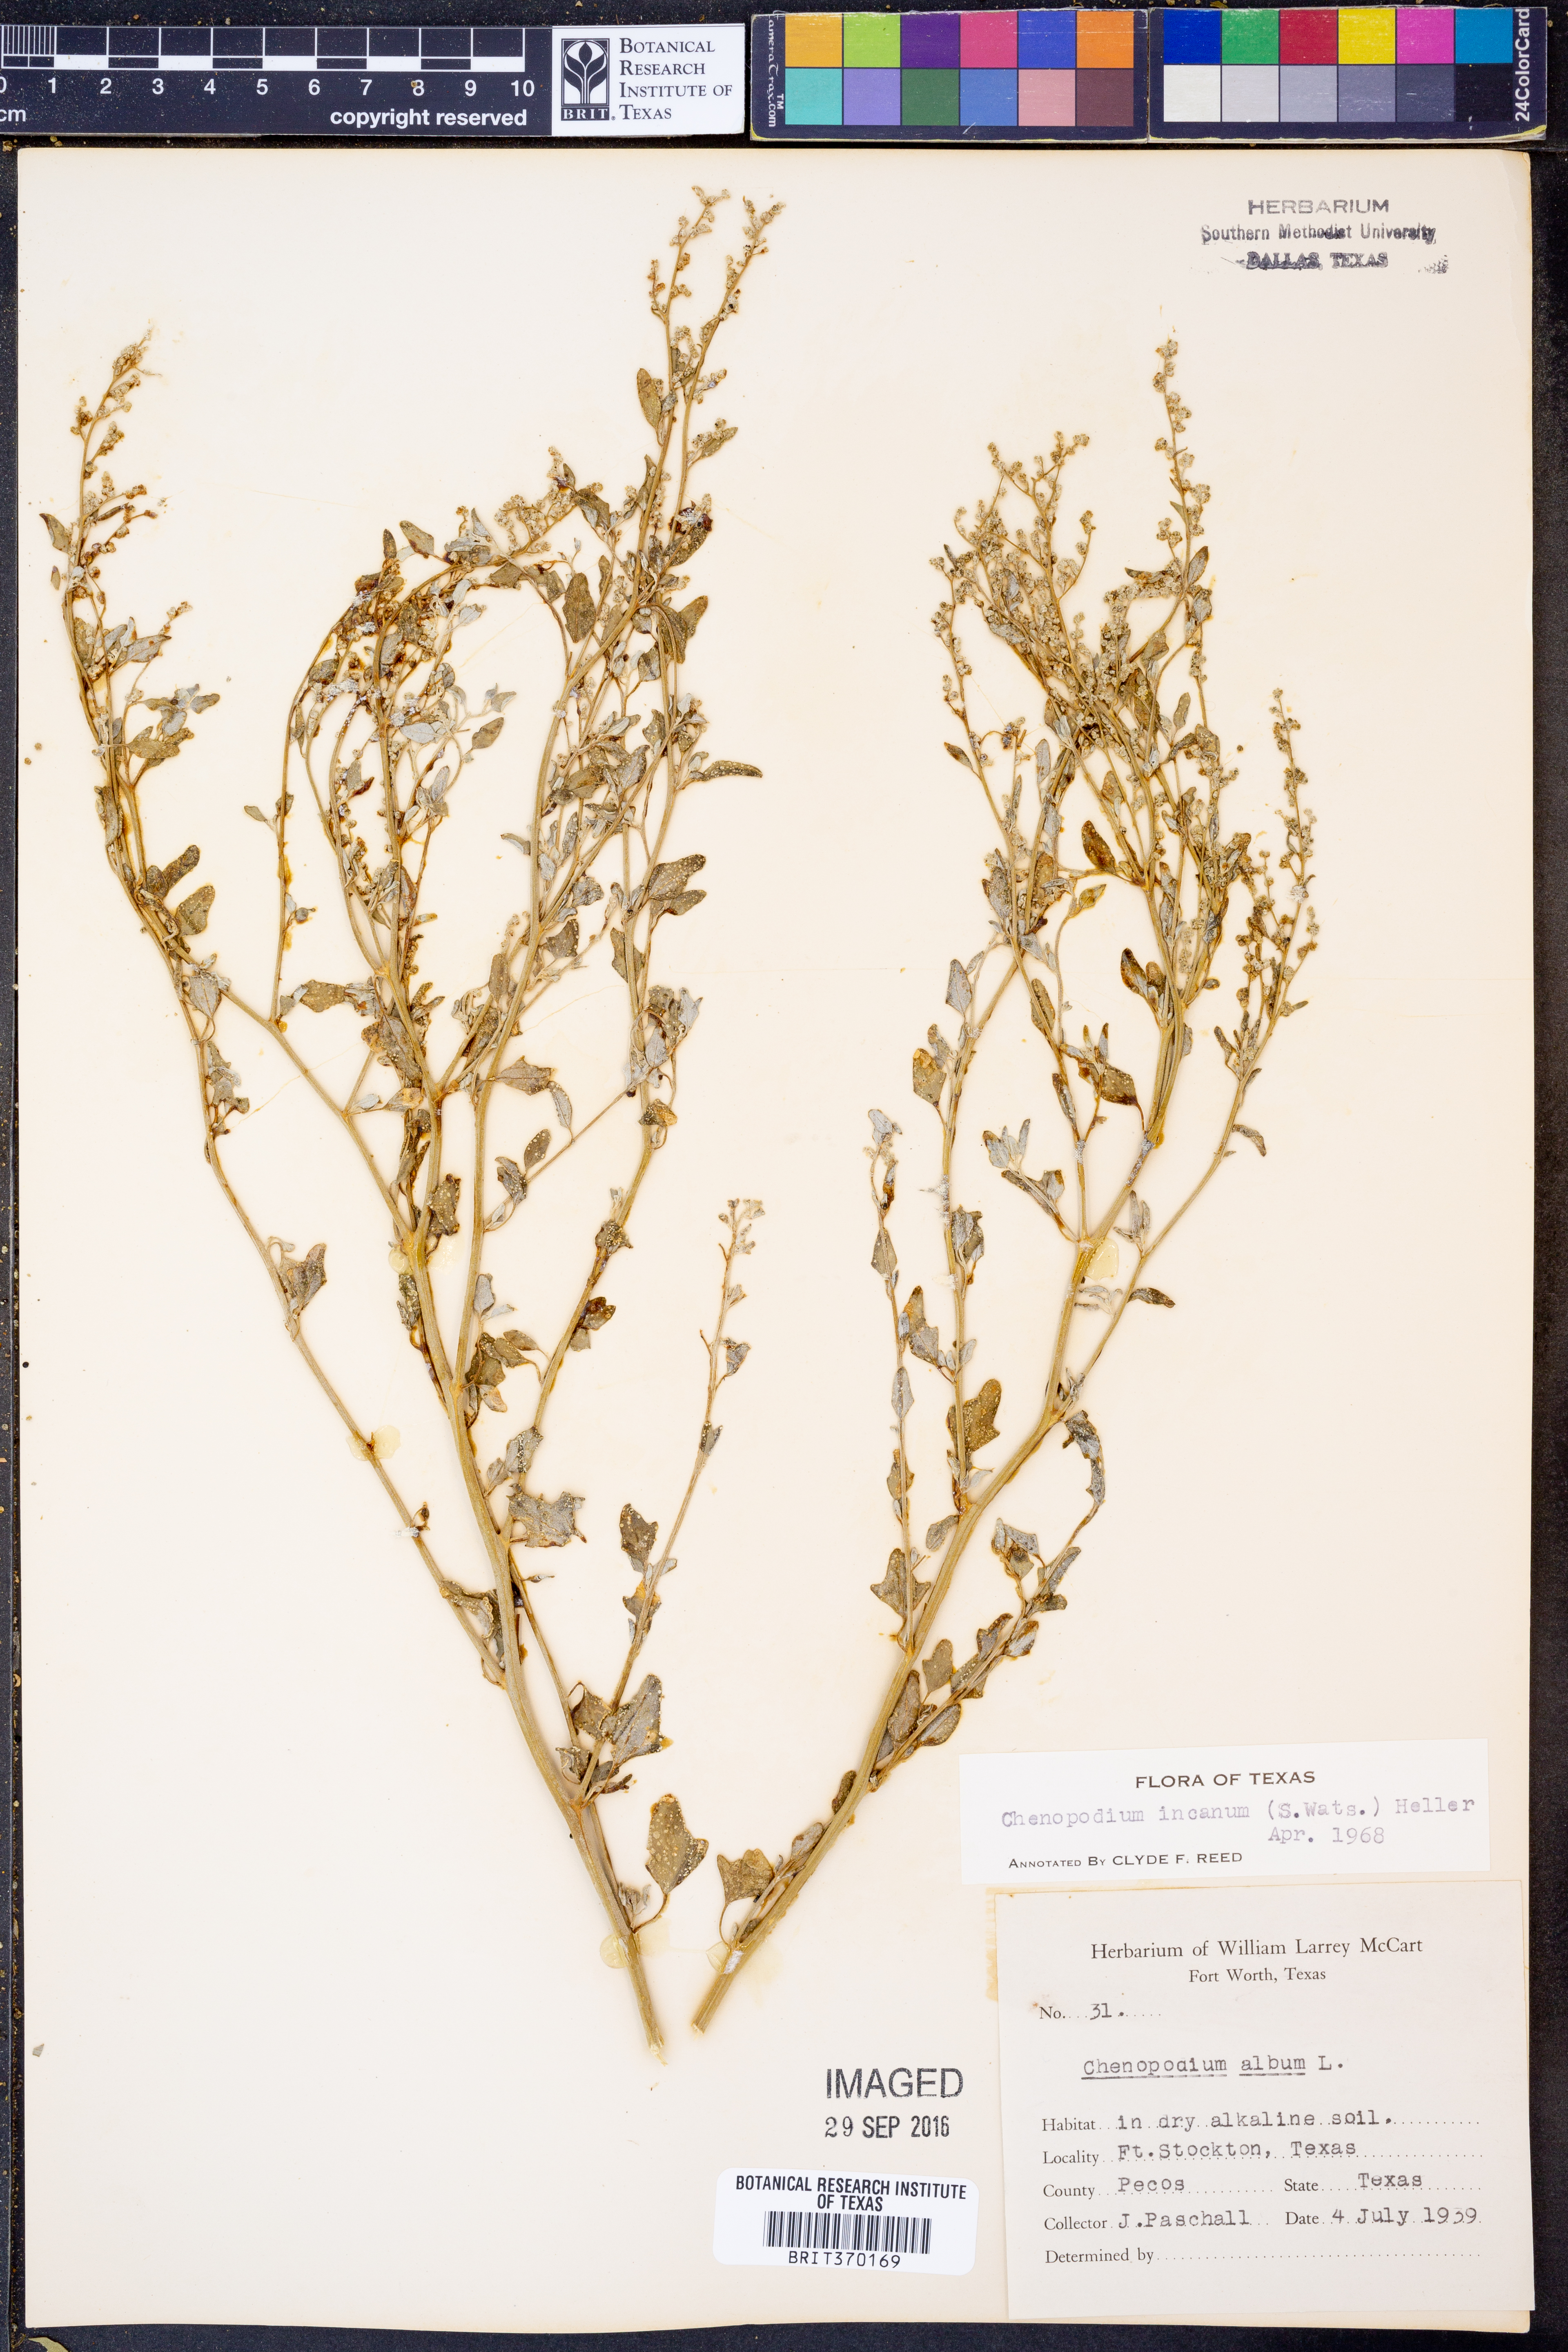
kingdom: Plantae
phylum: Tracheophyta
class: Magnoliopsida
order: Caryophyllales
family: Amaranthaceae
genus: Chenopodium
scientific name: Chenopodium incanum
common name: Hoary goosefoot
